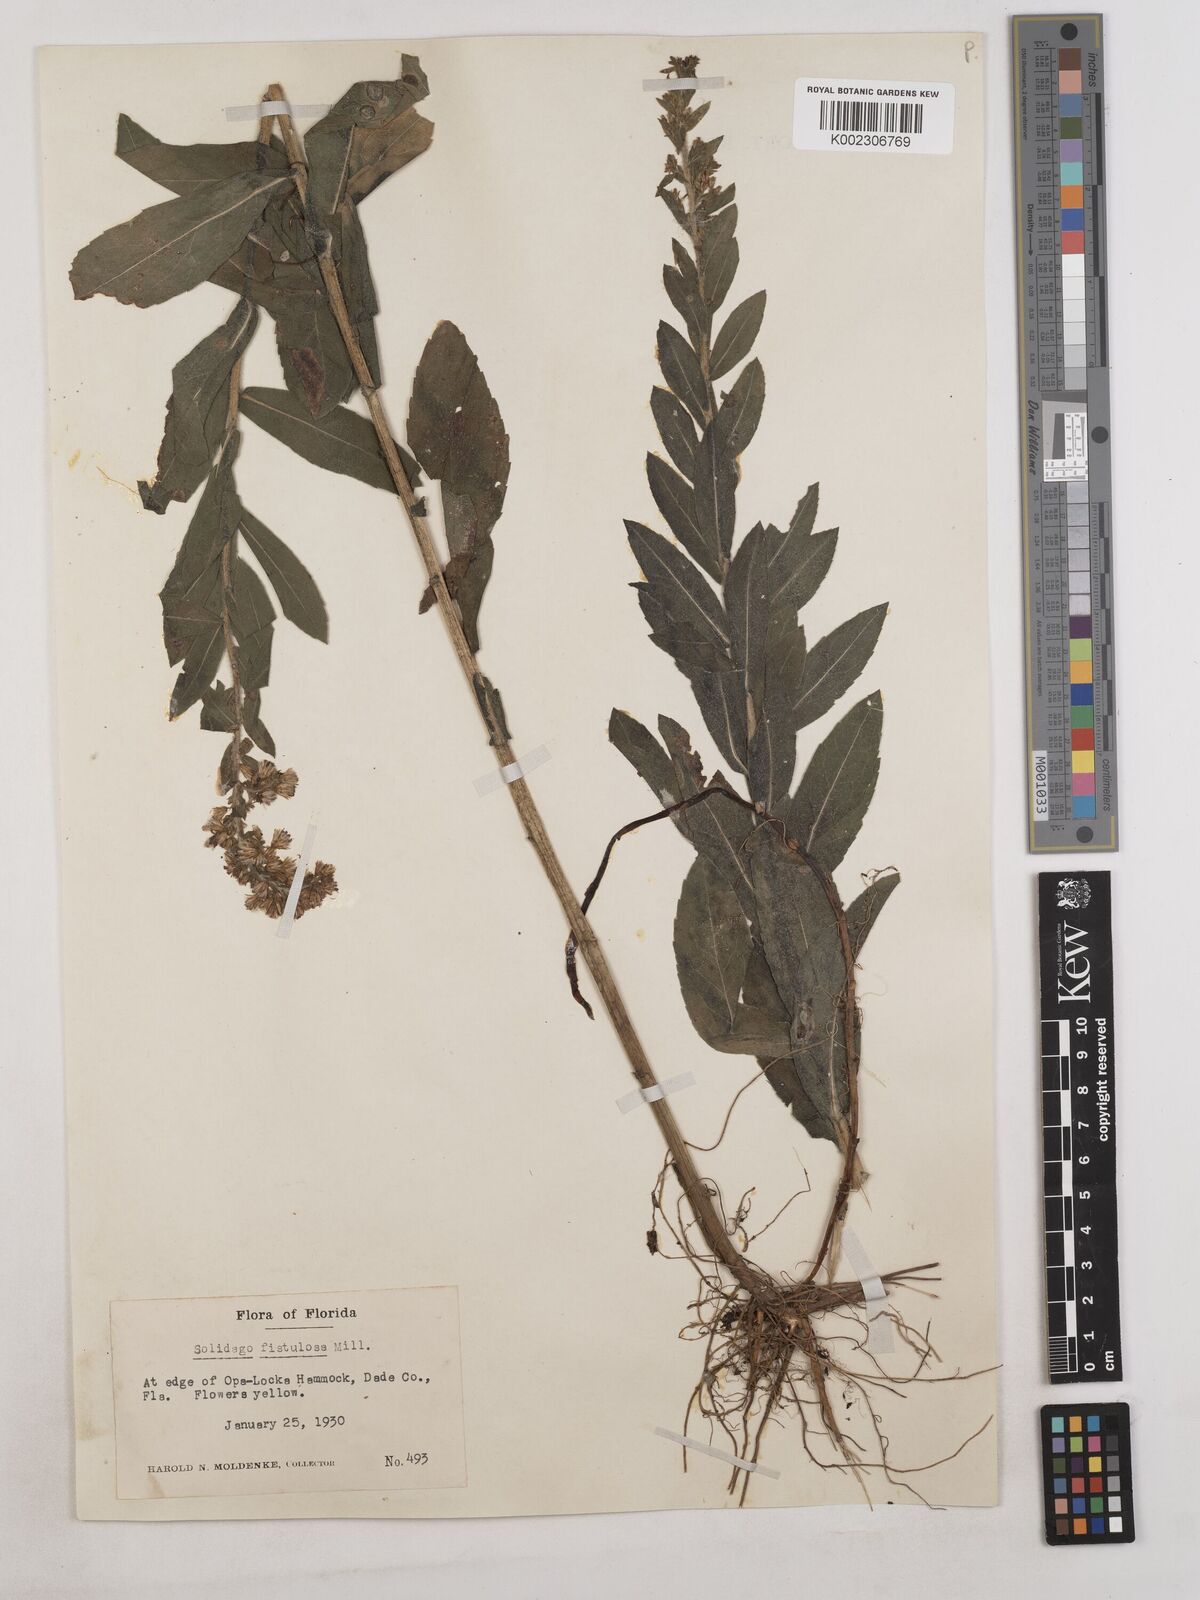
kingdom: Plantae
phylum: Tracheophyta
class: Magnoliopsida
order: Asterales
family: Asteraceae
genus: Solidago
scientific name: Solidago fistulosa
